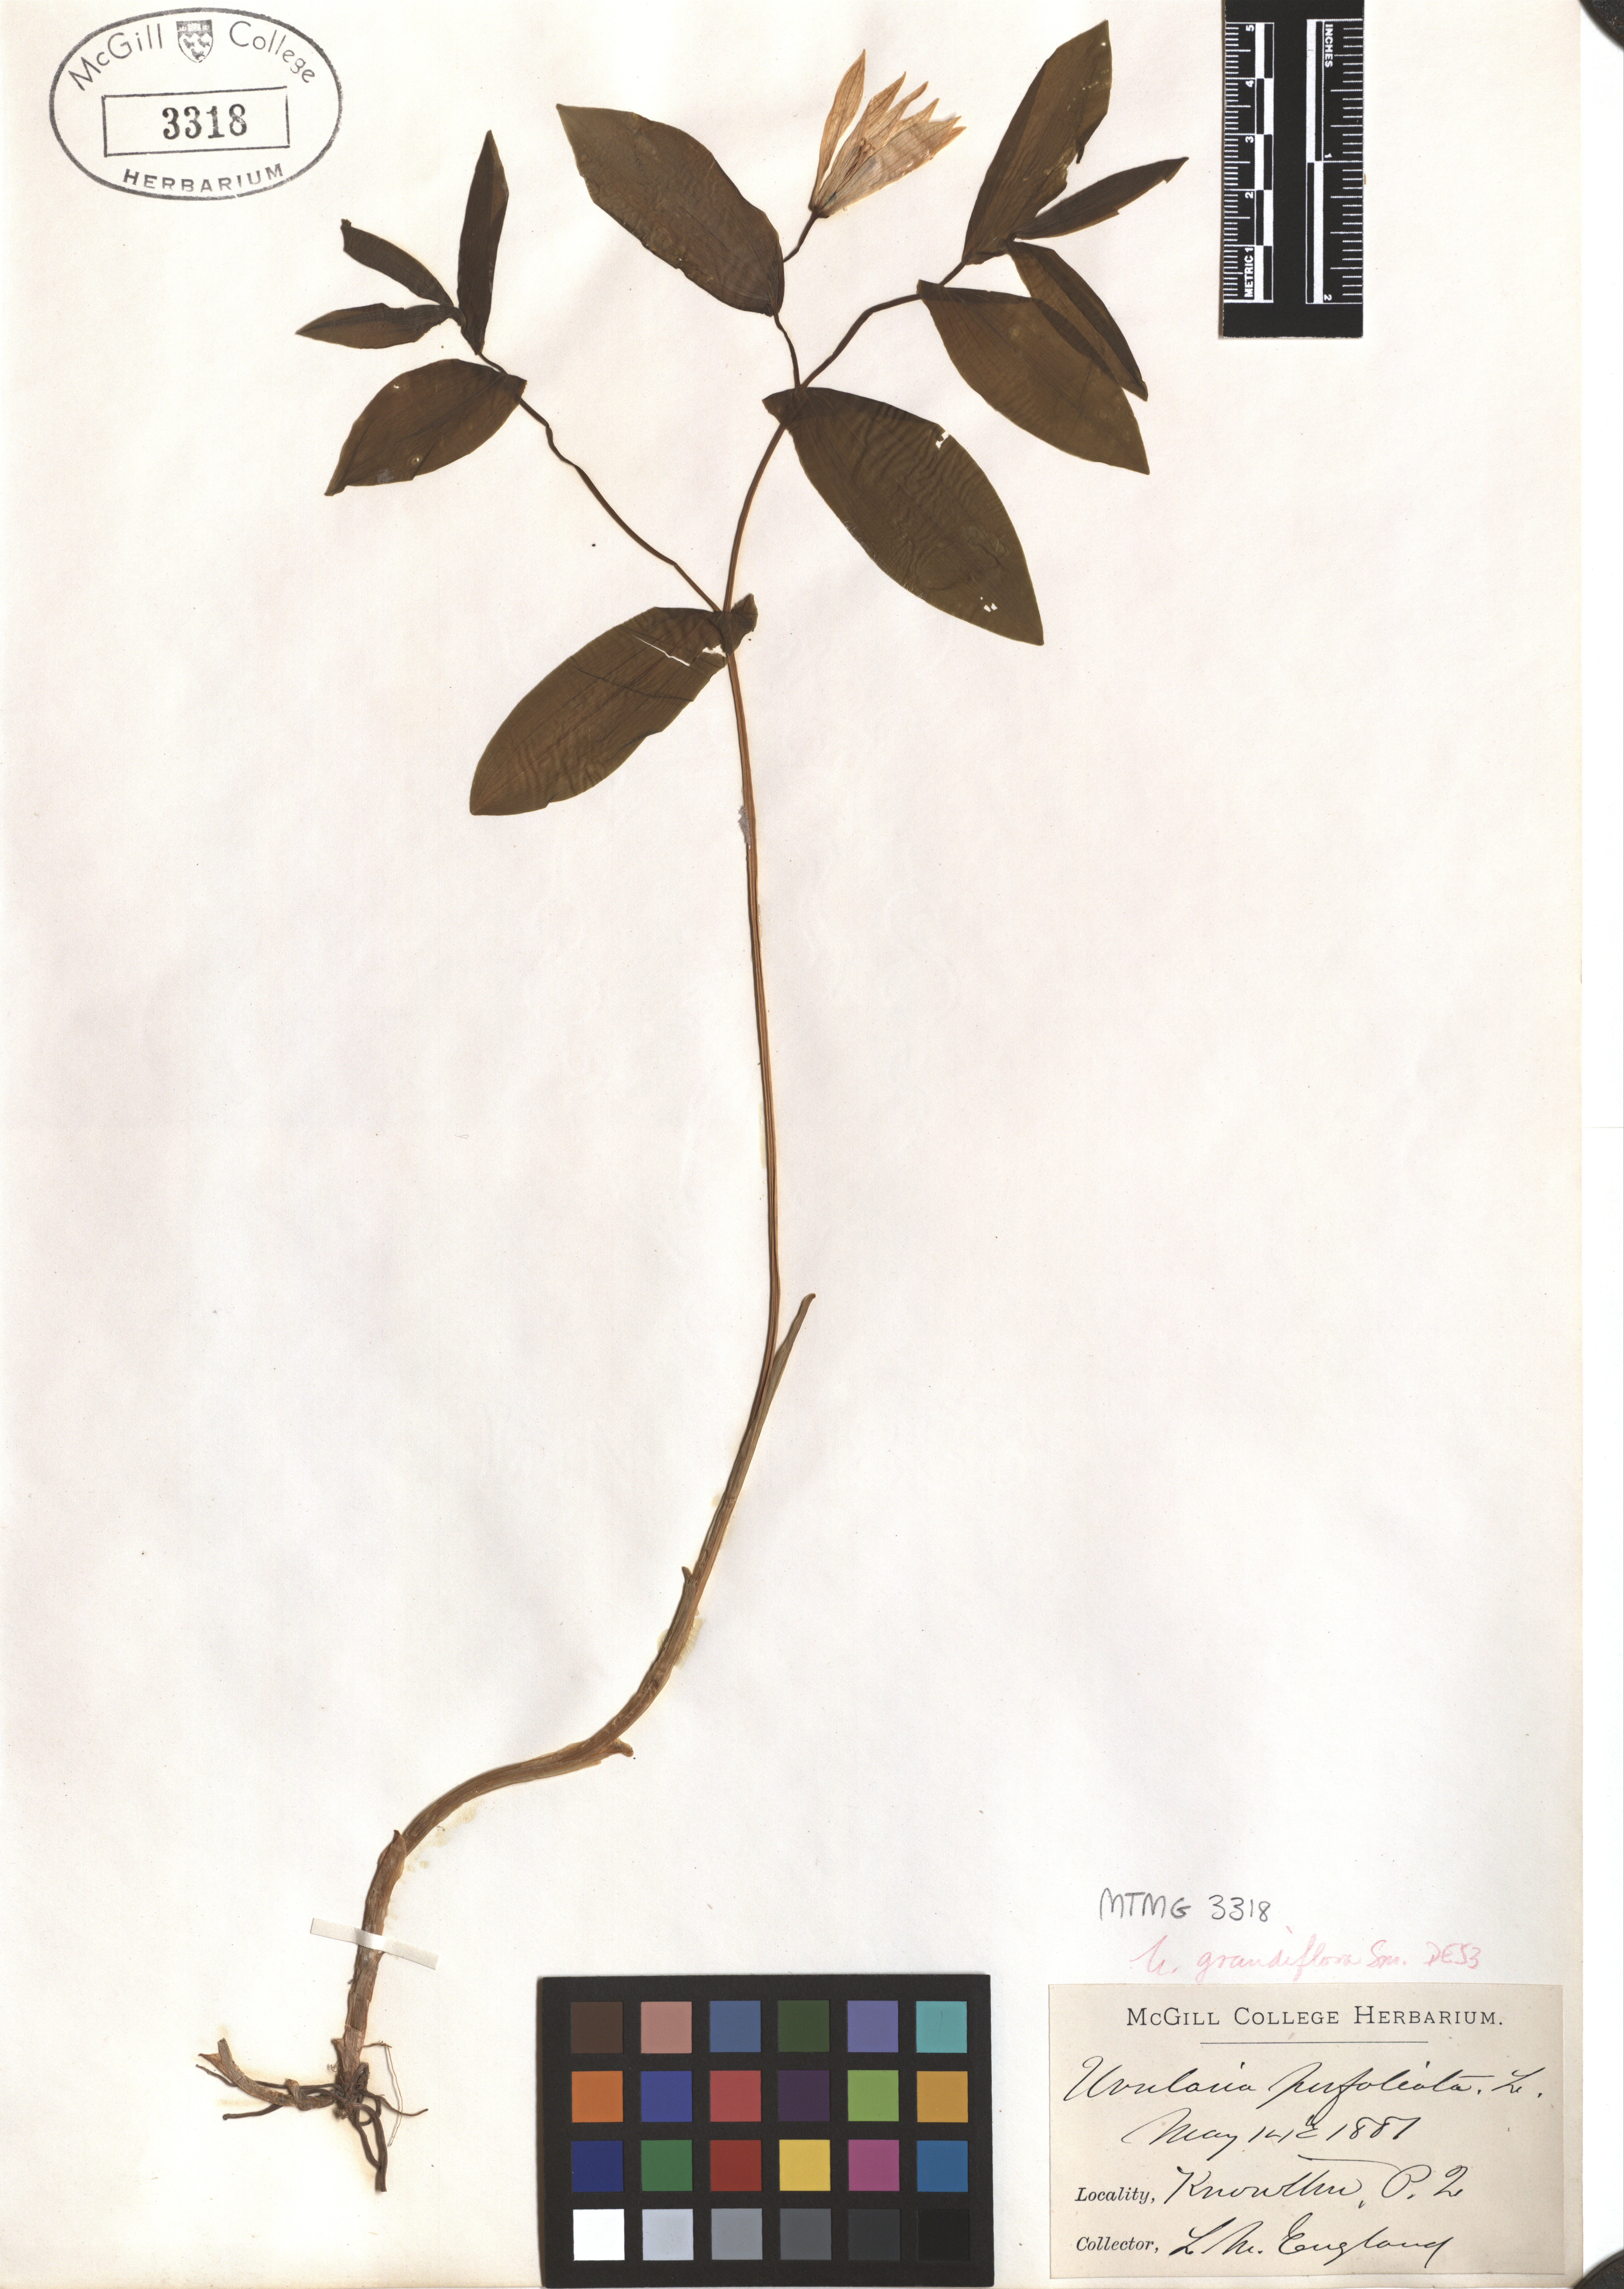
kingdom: Plantae
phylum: Tracheophyta
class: Liliopsida
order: Liliales
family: Colchicaceae
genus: Uvularia
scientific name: Uvularia grandiflora
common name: Bellwort
